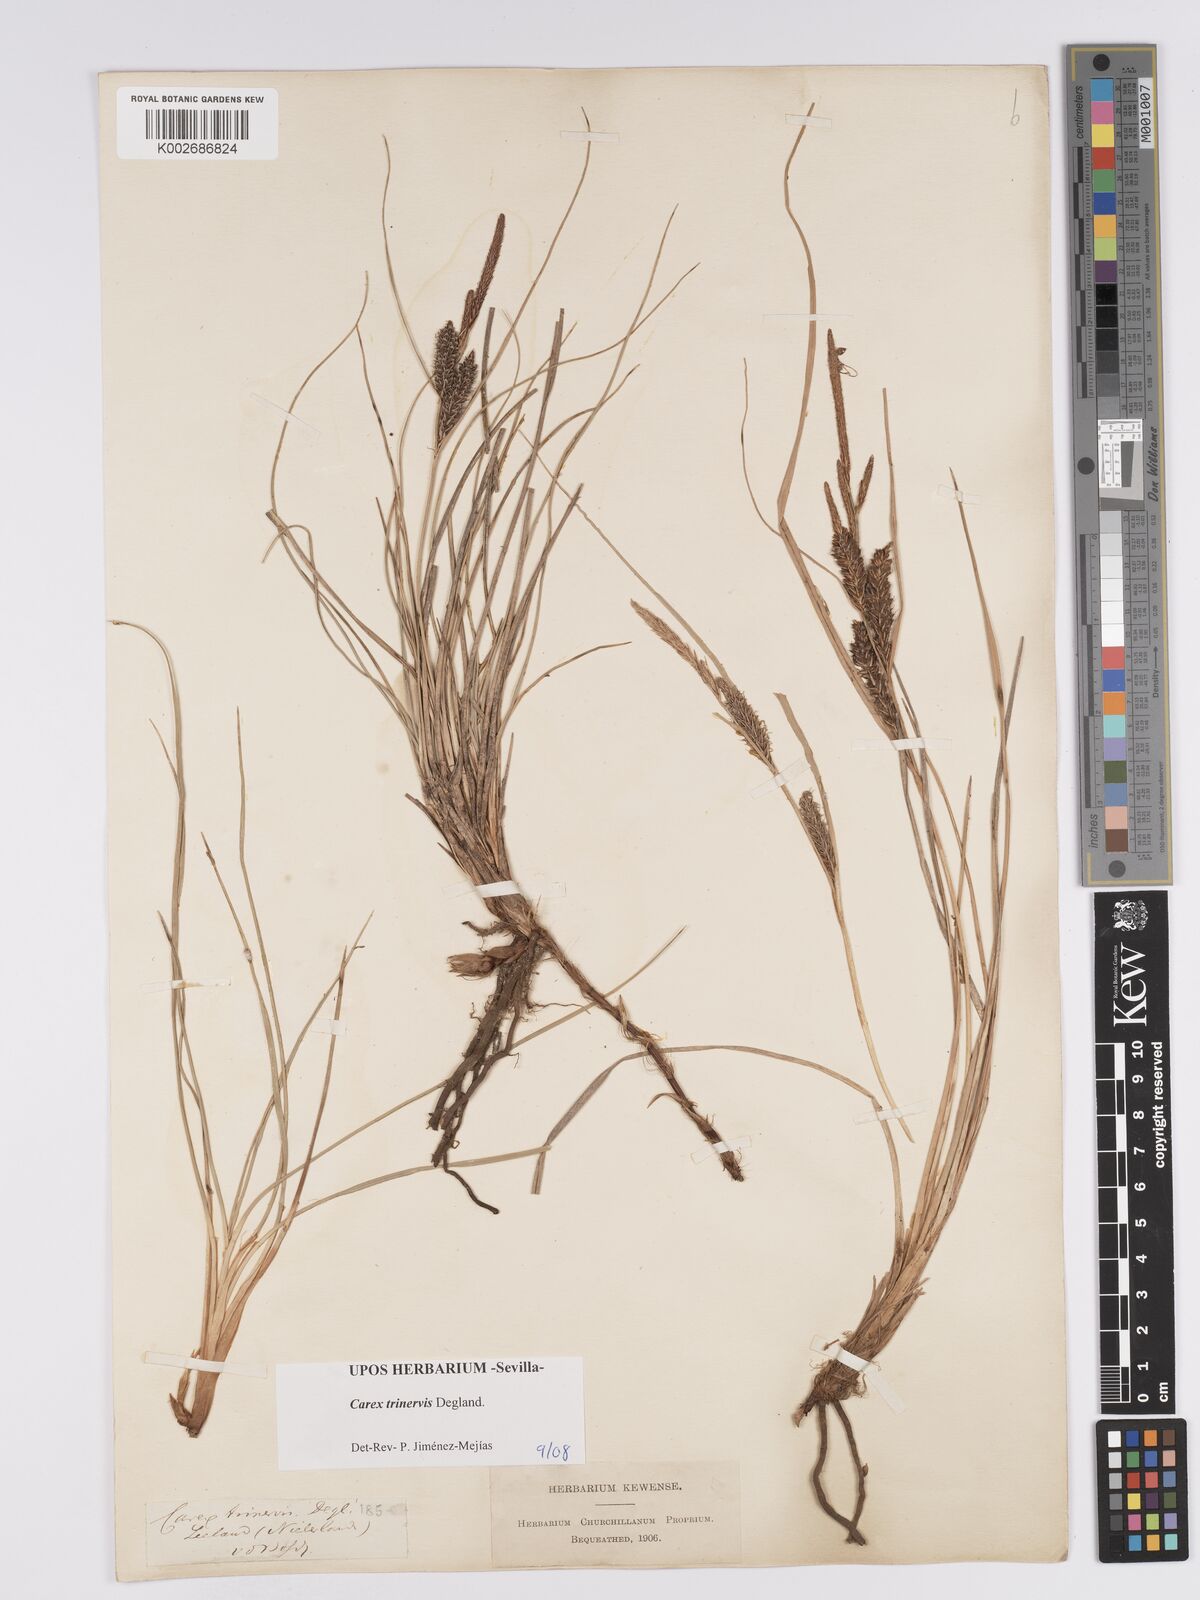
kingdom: Plantae
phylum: Tracheophyta
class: Liliopsida
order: Poales
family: Cyperaceae
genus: Carex
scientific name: Carex trinervis
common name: Three-nerved sedge
